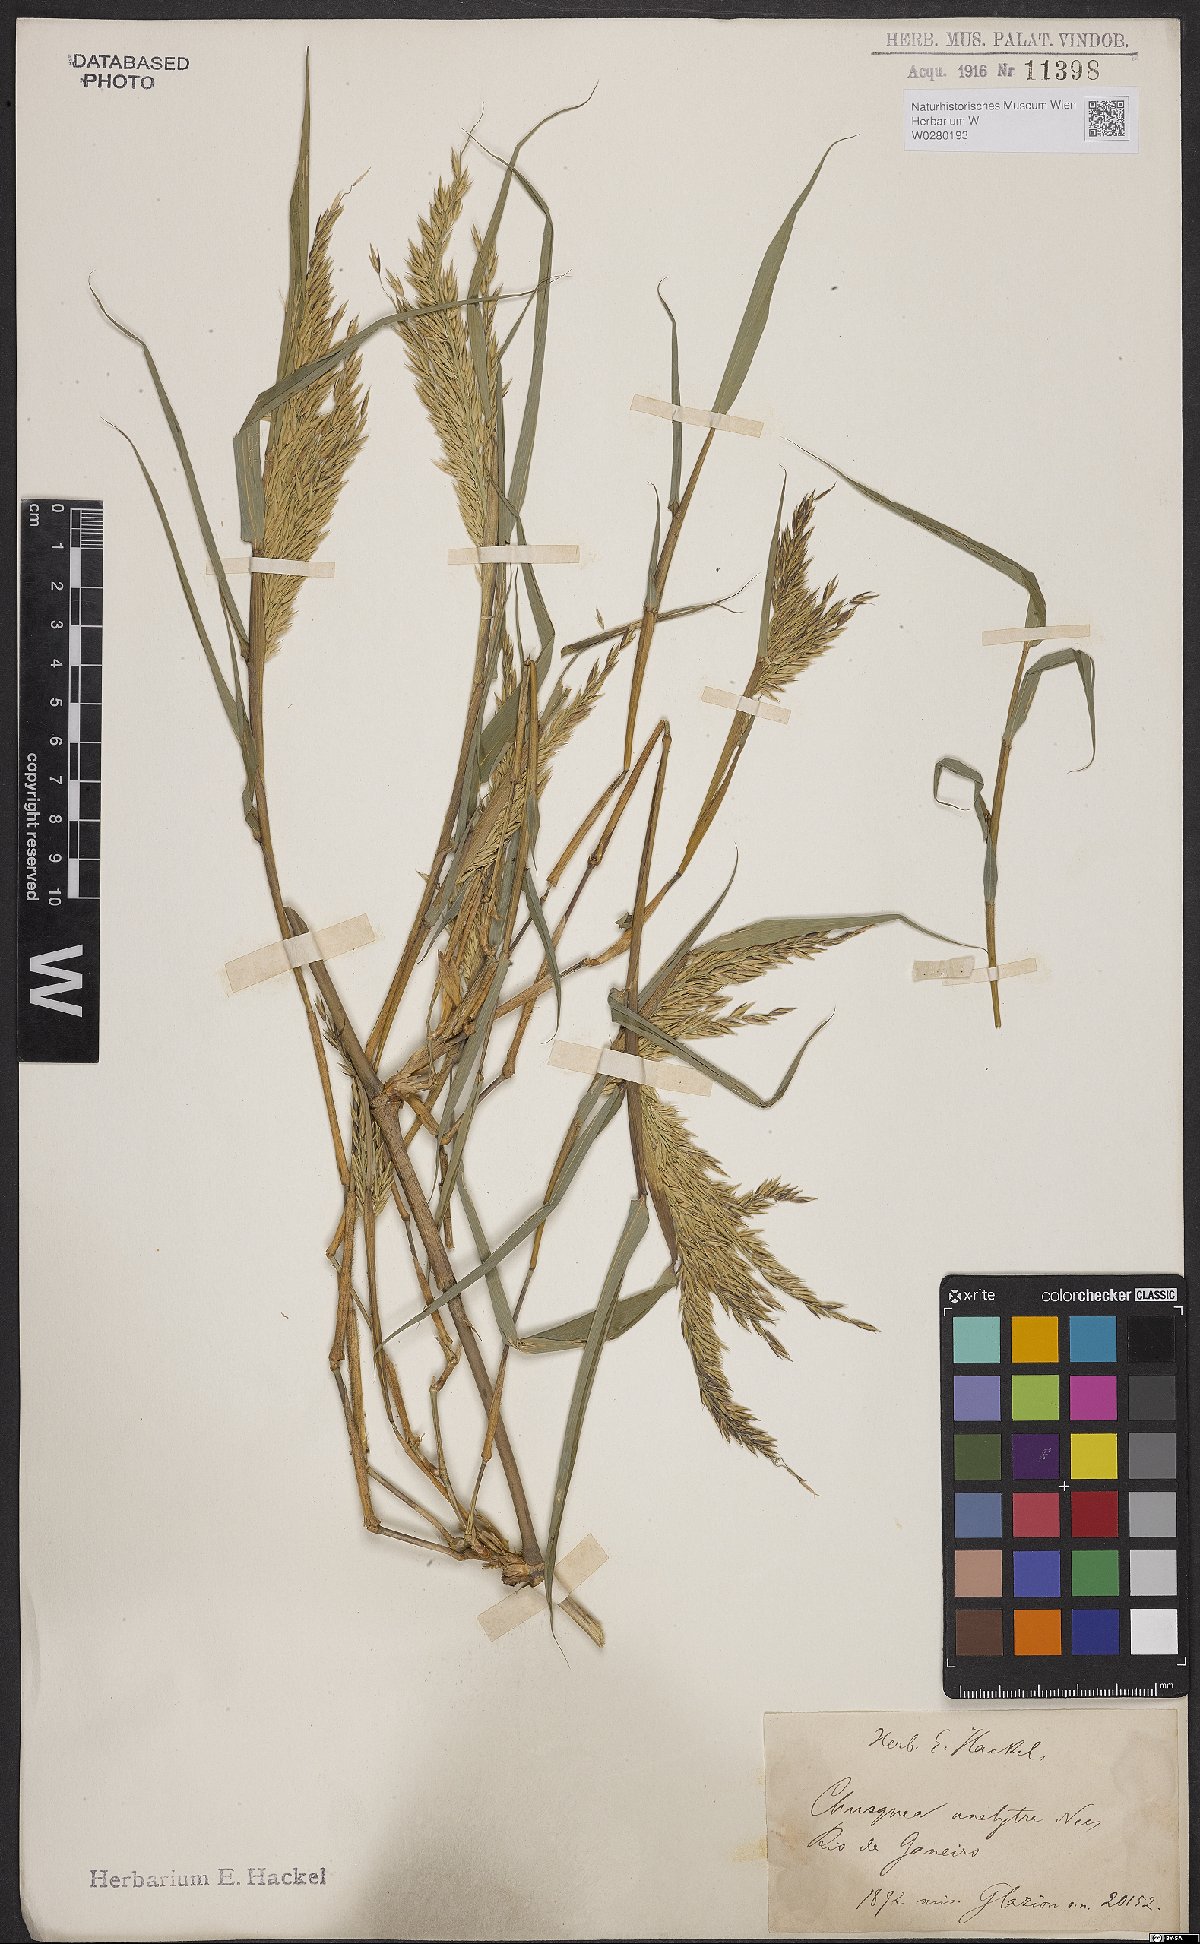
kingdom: Plantae
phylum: Tracheophyta
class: Liliopsida
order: Poales
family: Poaceae
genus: Chusquea
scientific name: Chusquea anelythra
